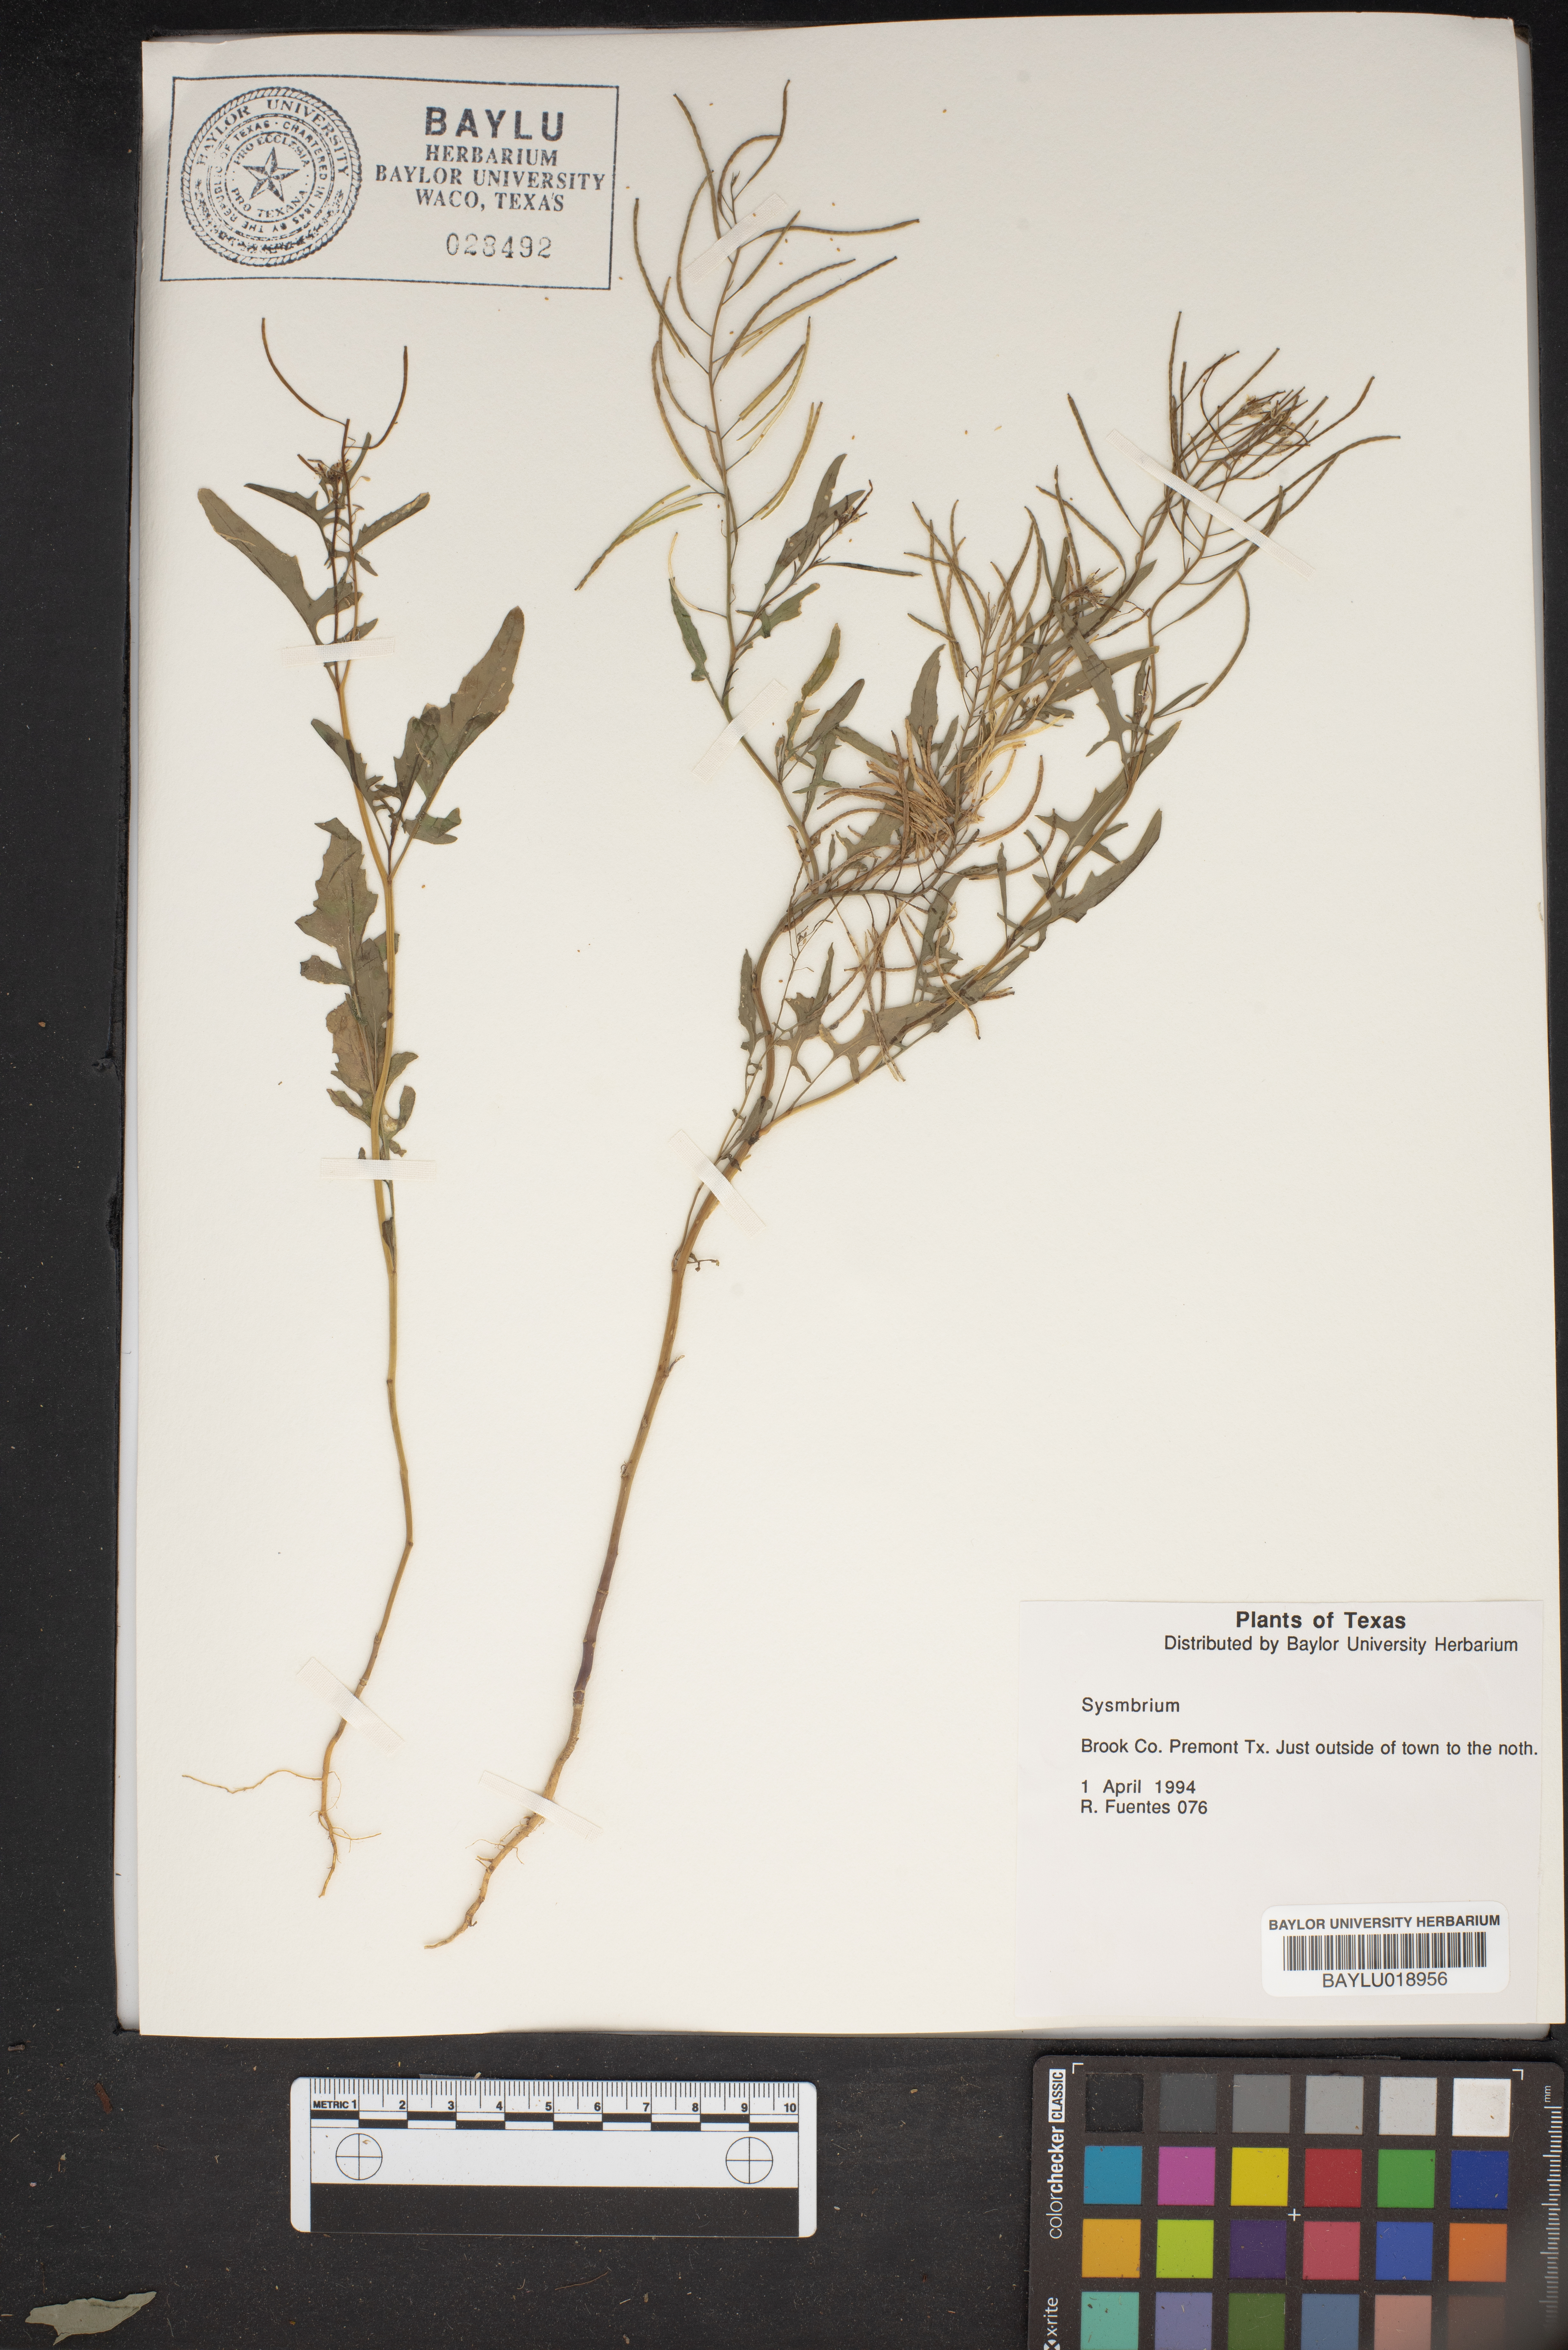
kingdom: Plantae
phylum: Tracheophyta
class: Magnoliopsida
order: Brassicales
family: Brassicaceae
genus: Sisymbrium
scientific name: Sisymbrium
